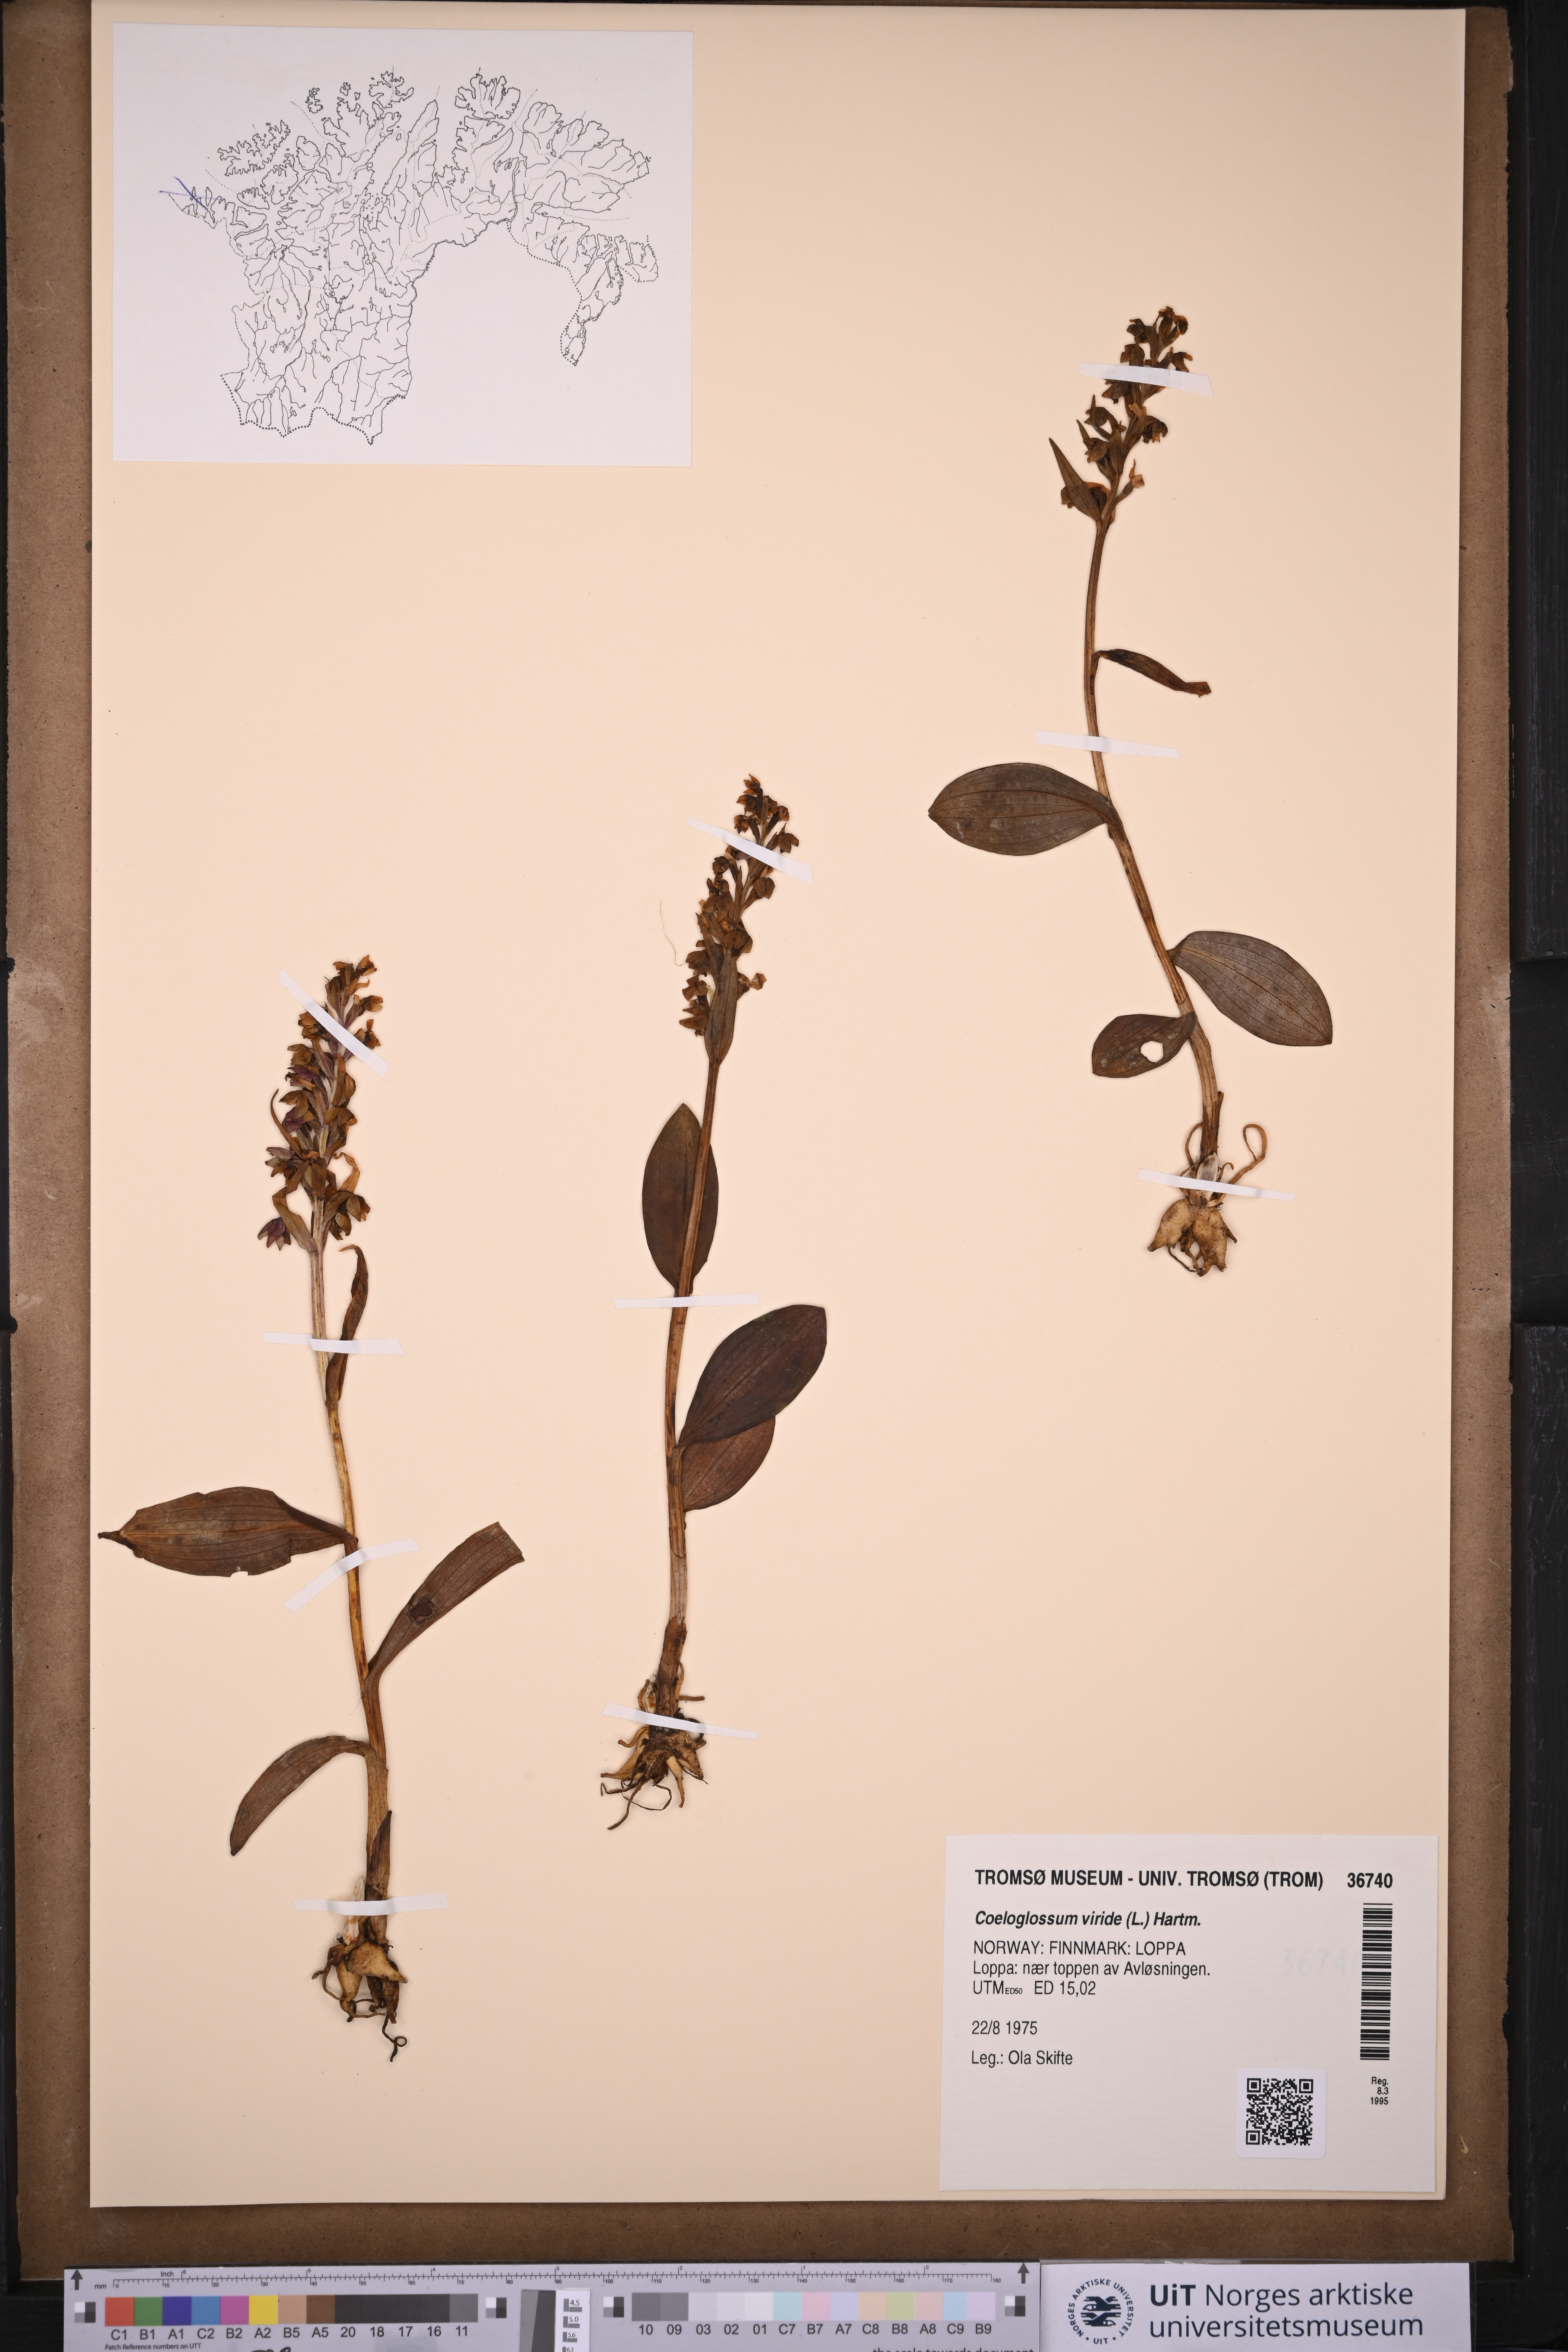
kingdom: Plantae
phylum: Tracheophyta
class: Liliopsida
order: Asparagales
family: Orchidaceae
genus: Dactylorhiza
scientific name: Dactylorhiza viridis
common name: Longbract frog orchid
